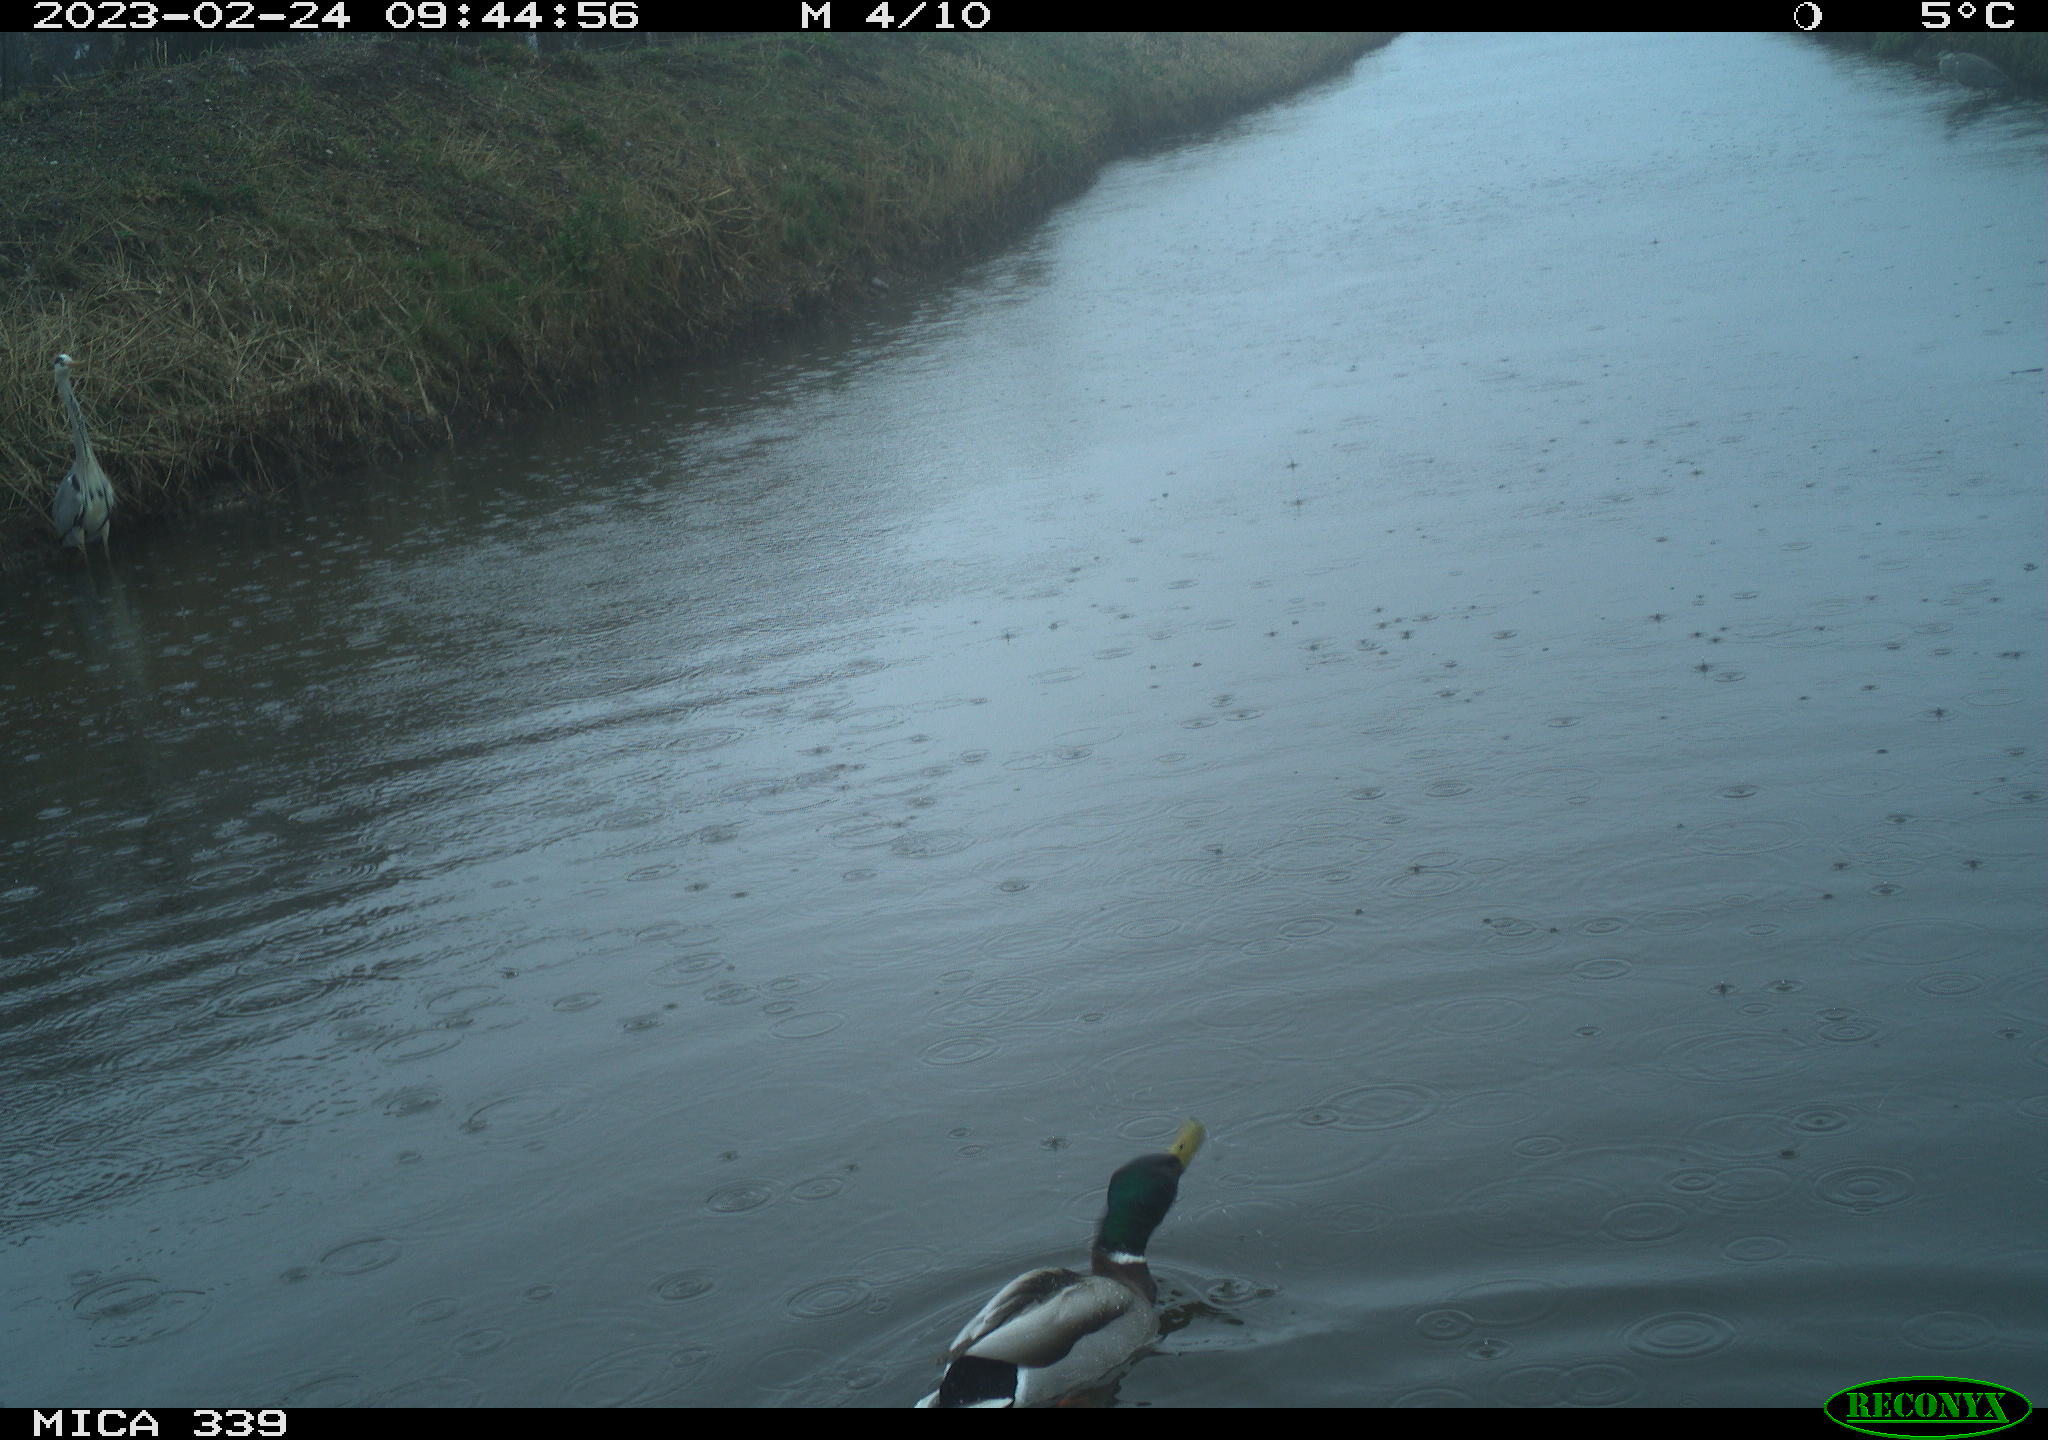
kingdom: Animalia
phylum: Chordata
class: Aves
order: Anseriformes
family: Anatidae
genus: Anas
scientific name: Anas
